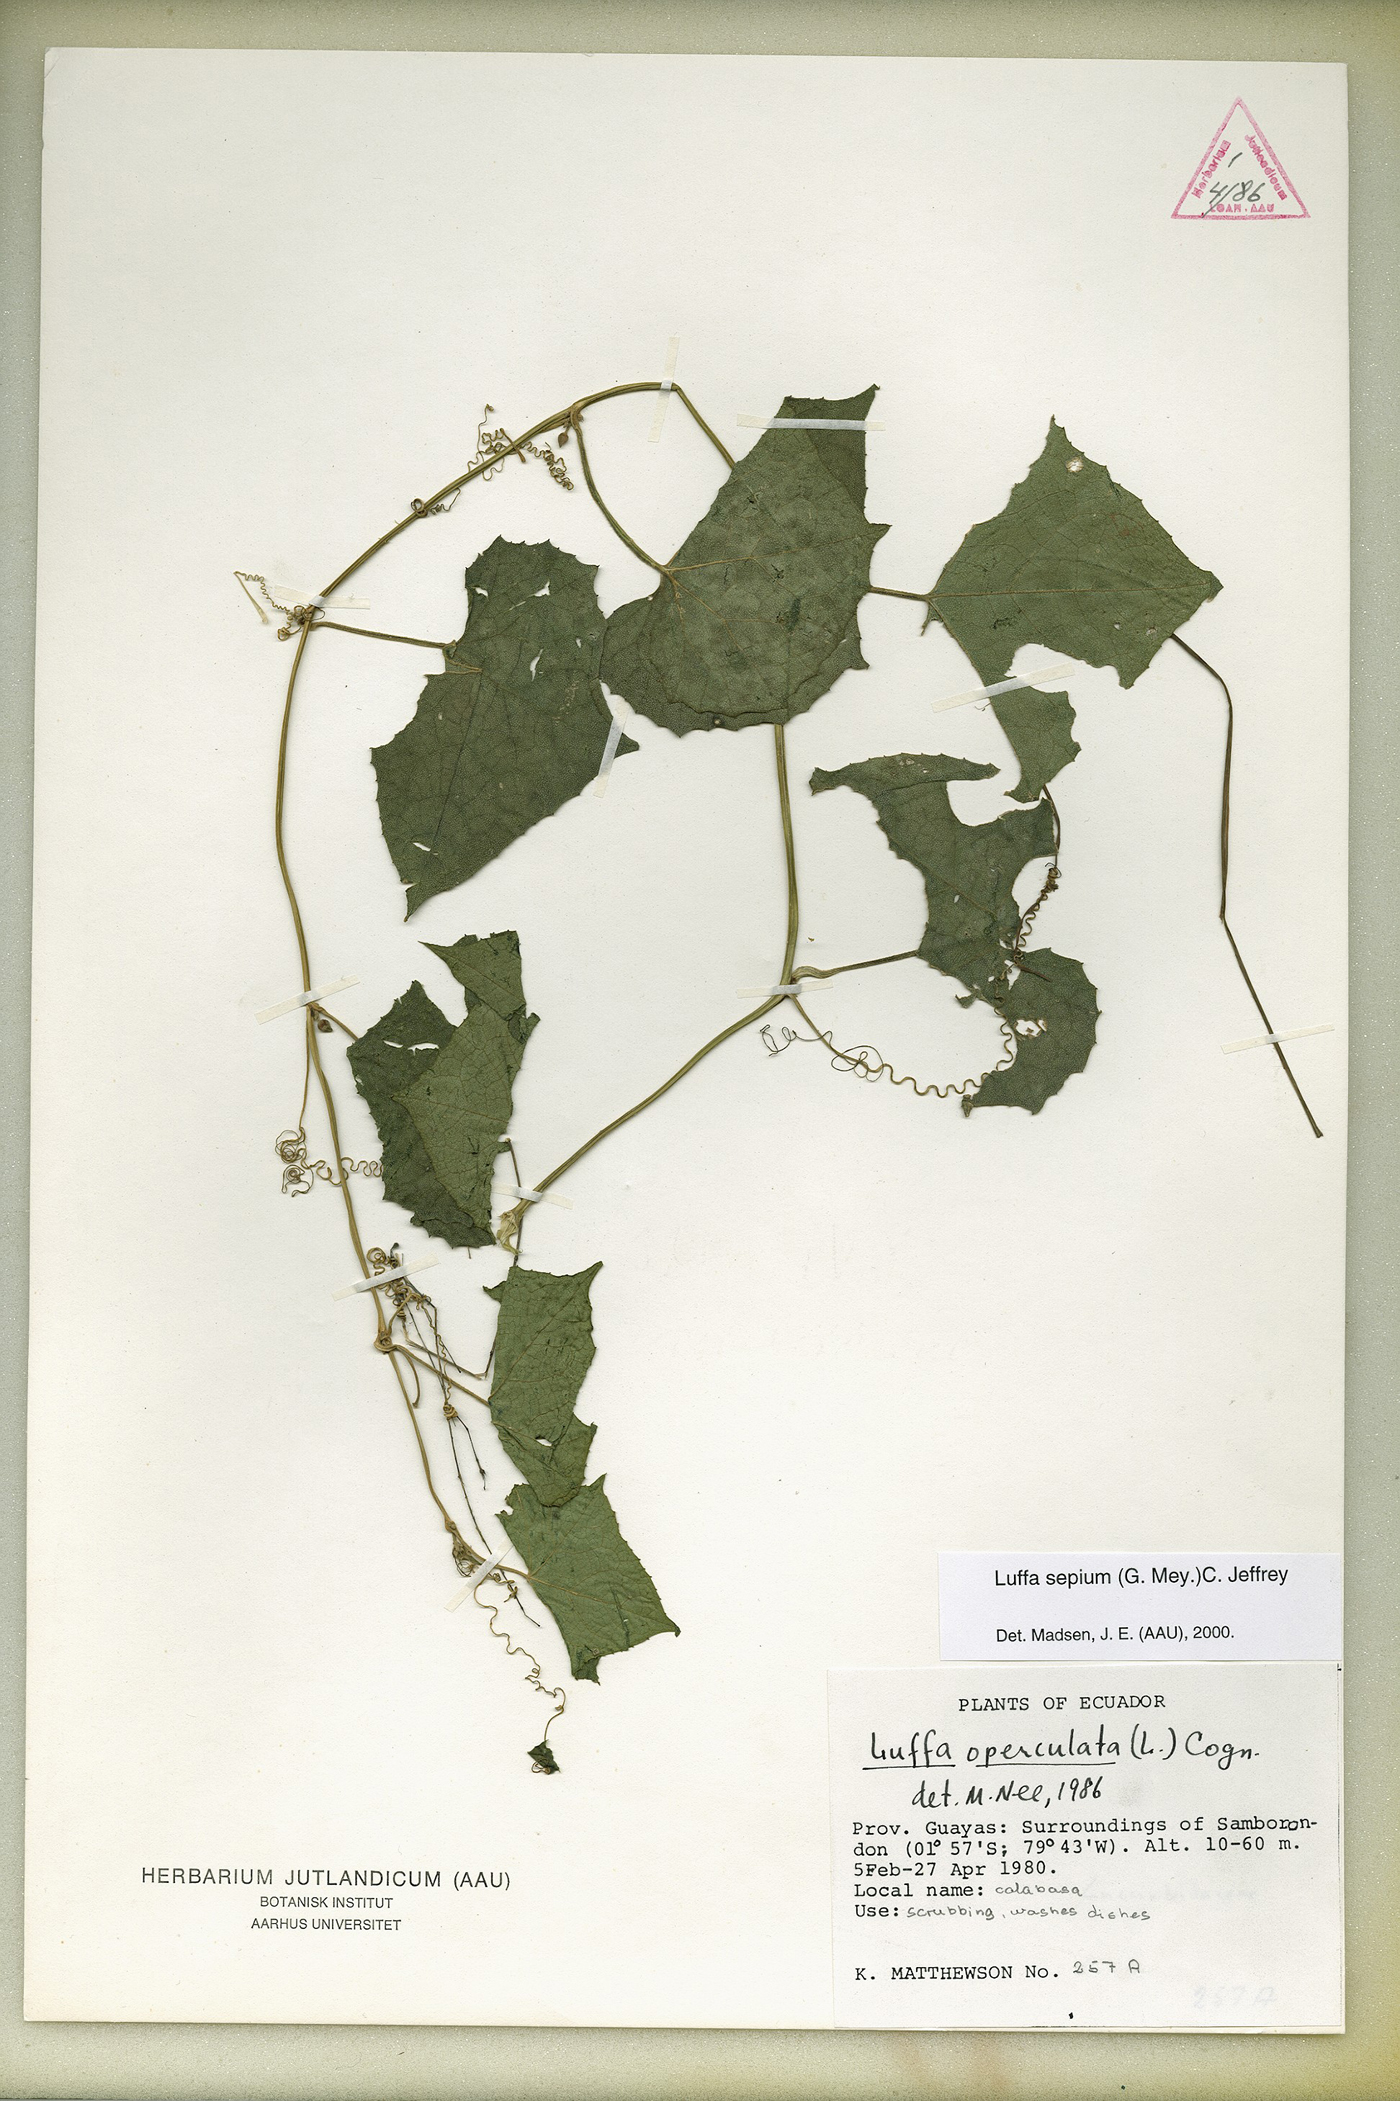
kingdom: Plantae
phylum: Tracheophyta
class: Magnoliopsida
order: Cucurbitales
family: Cucurbitaceae
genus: Luffa
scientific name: Luffa operculata
